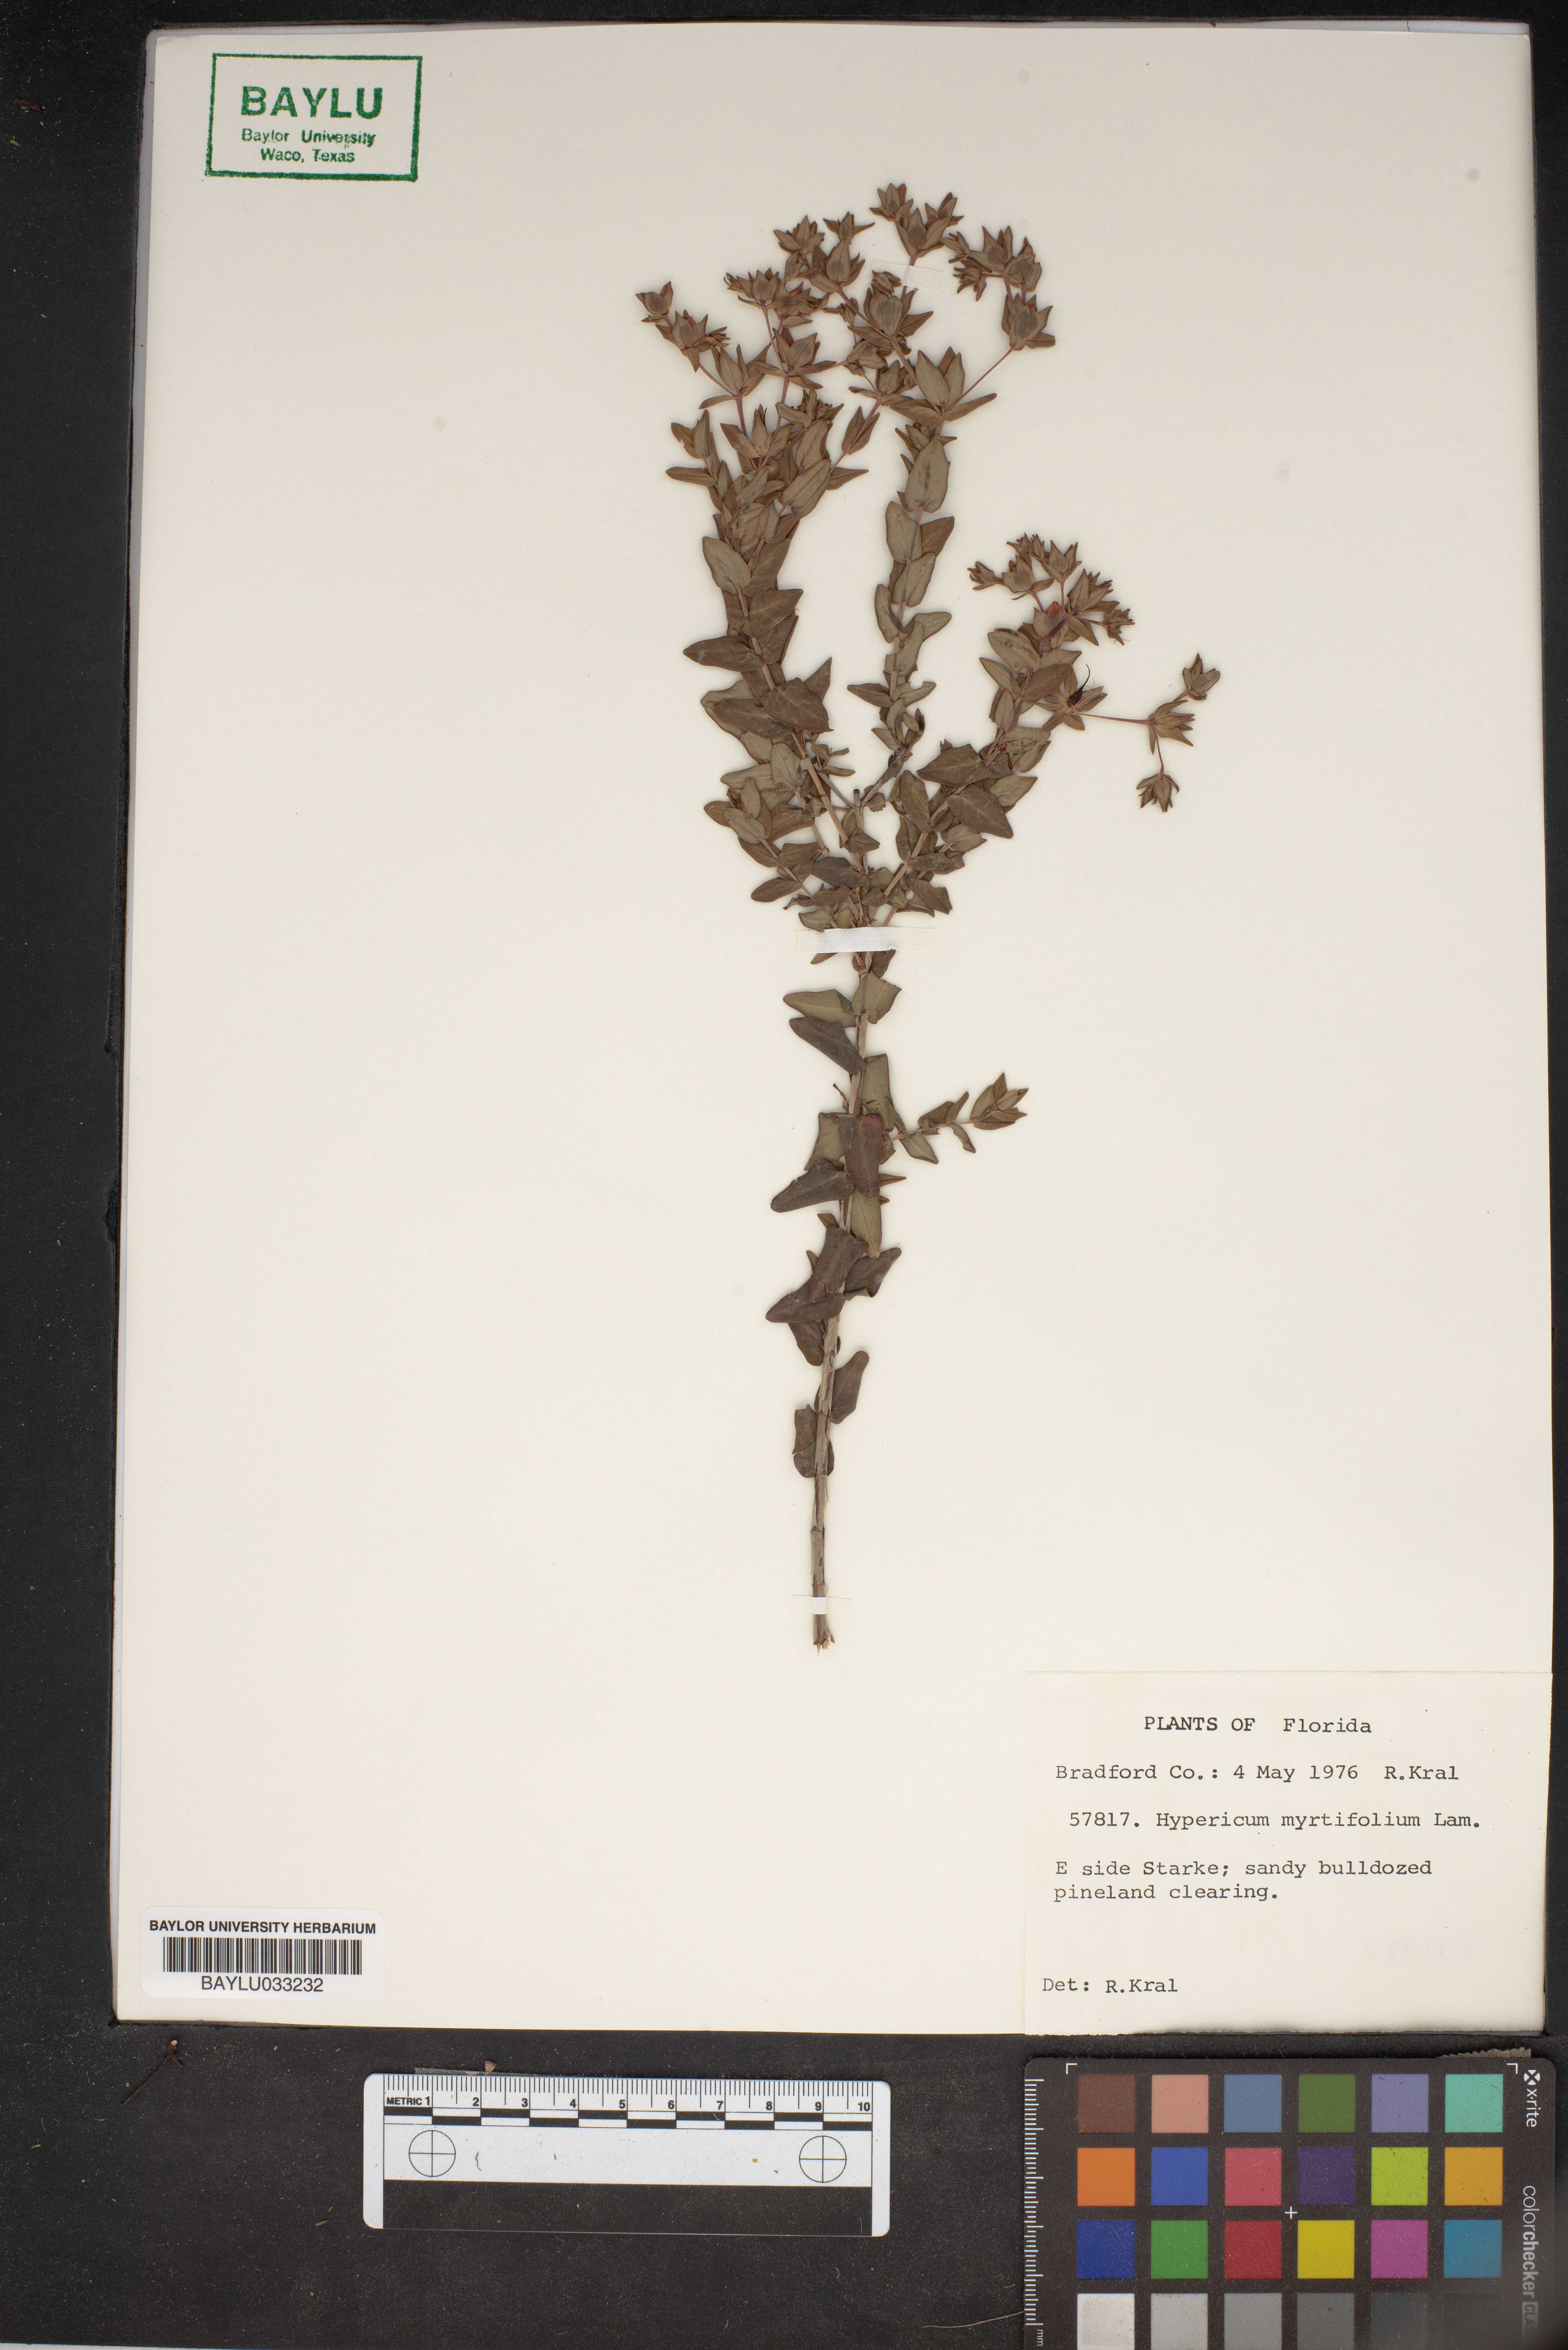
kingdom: Plantae
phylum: Tracheophyta
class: Magnoliopsida
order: Malpighiales
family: Hypericaceae
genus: Hypericum
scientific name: Hypericum myrtifolium
